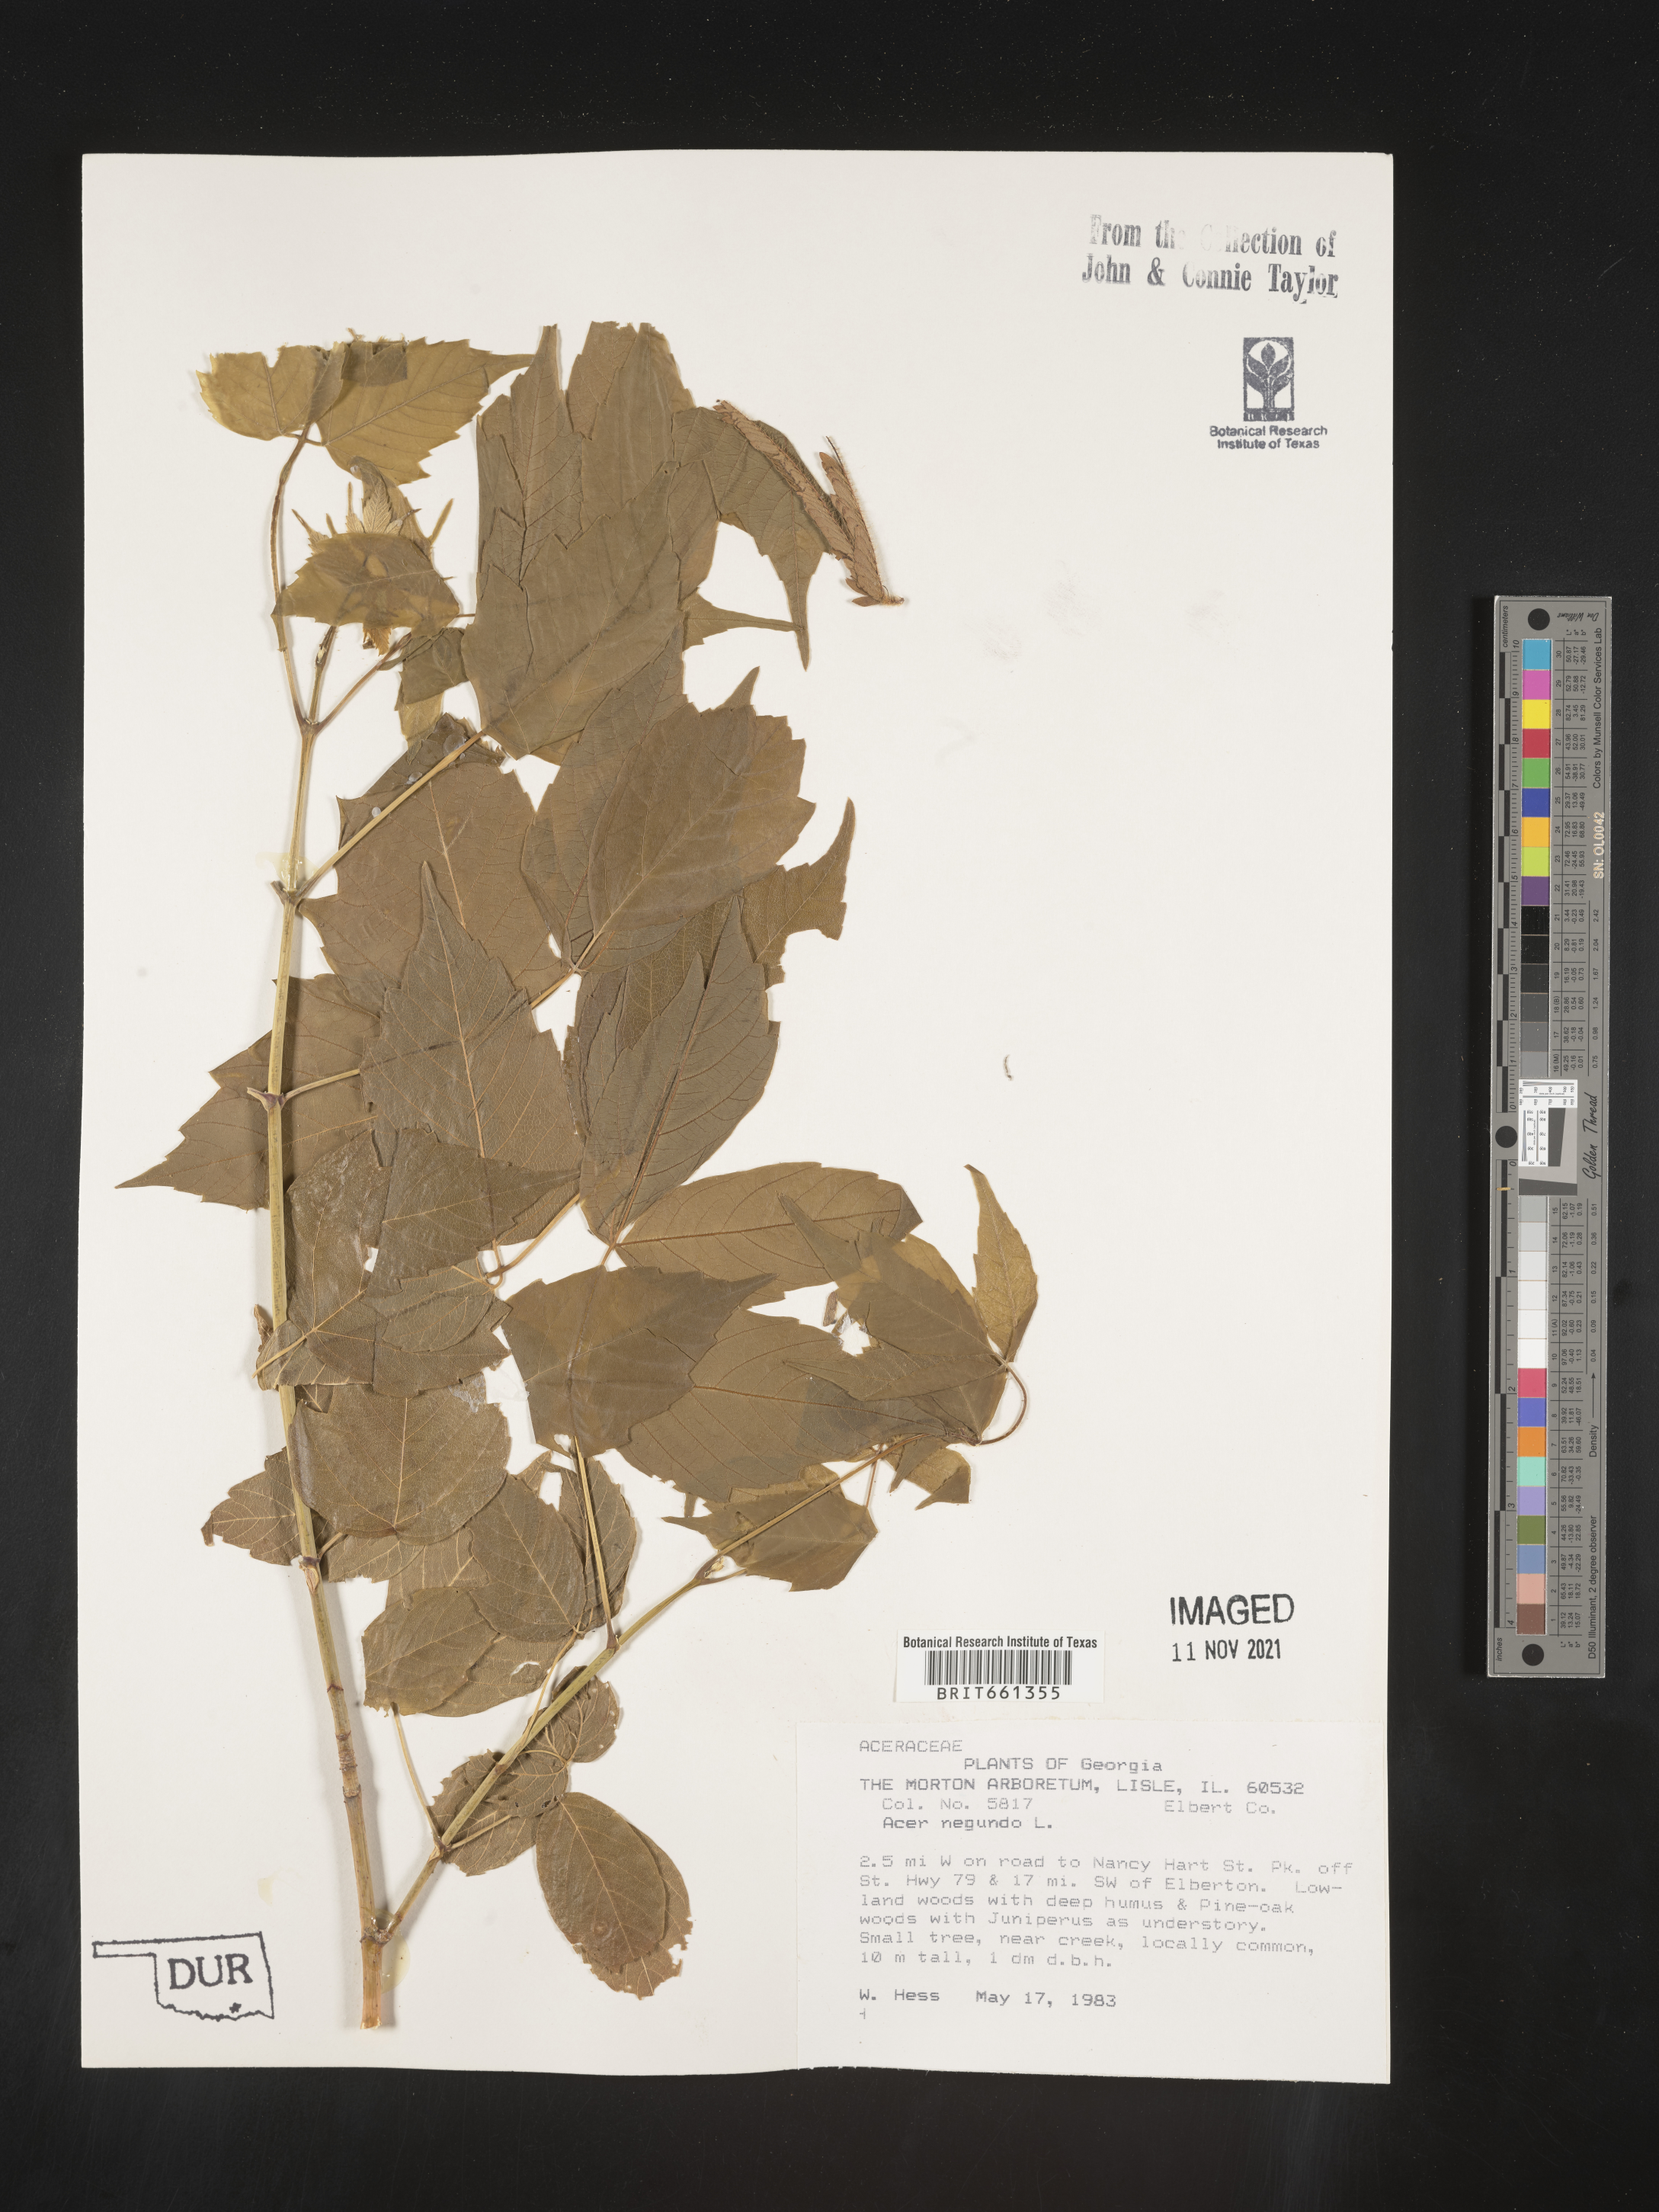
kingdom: Plantae
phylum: Tracheophyta
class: Magnoliopsida
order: Sapindales
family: Sapindaceae
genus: Acer
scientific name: Acer negundo
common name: Ashleaf maple
